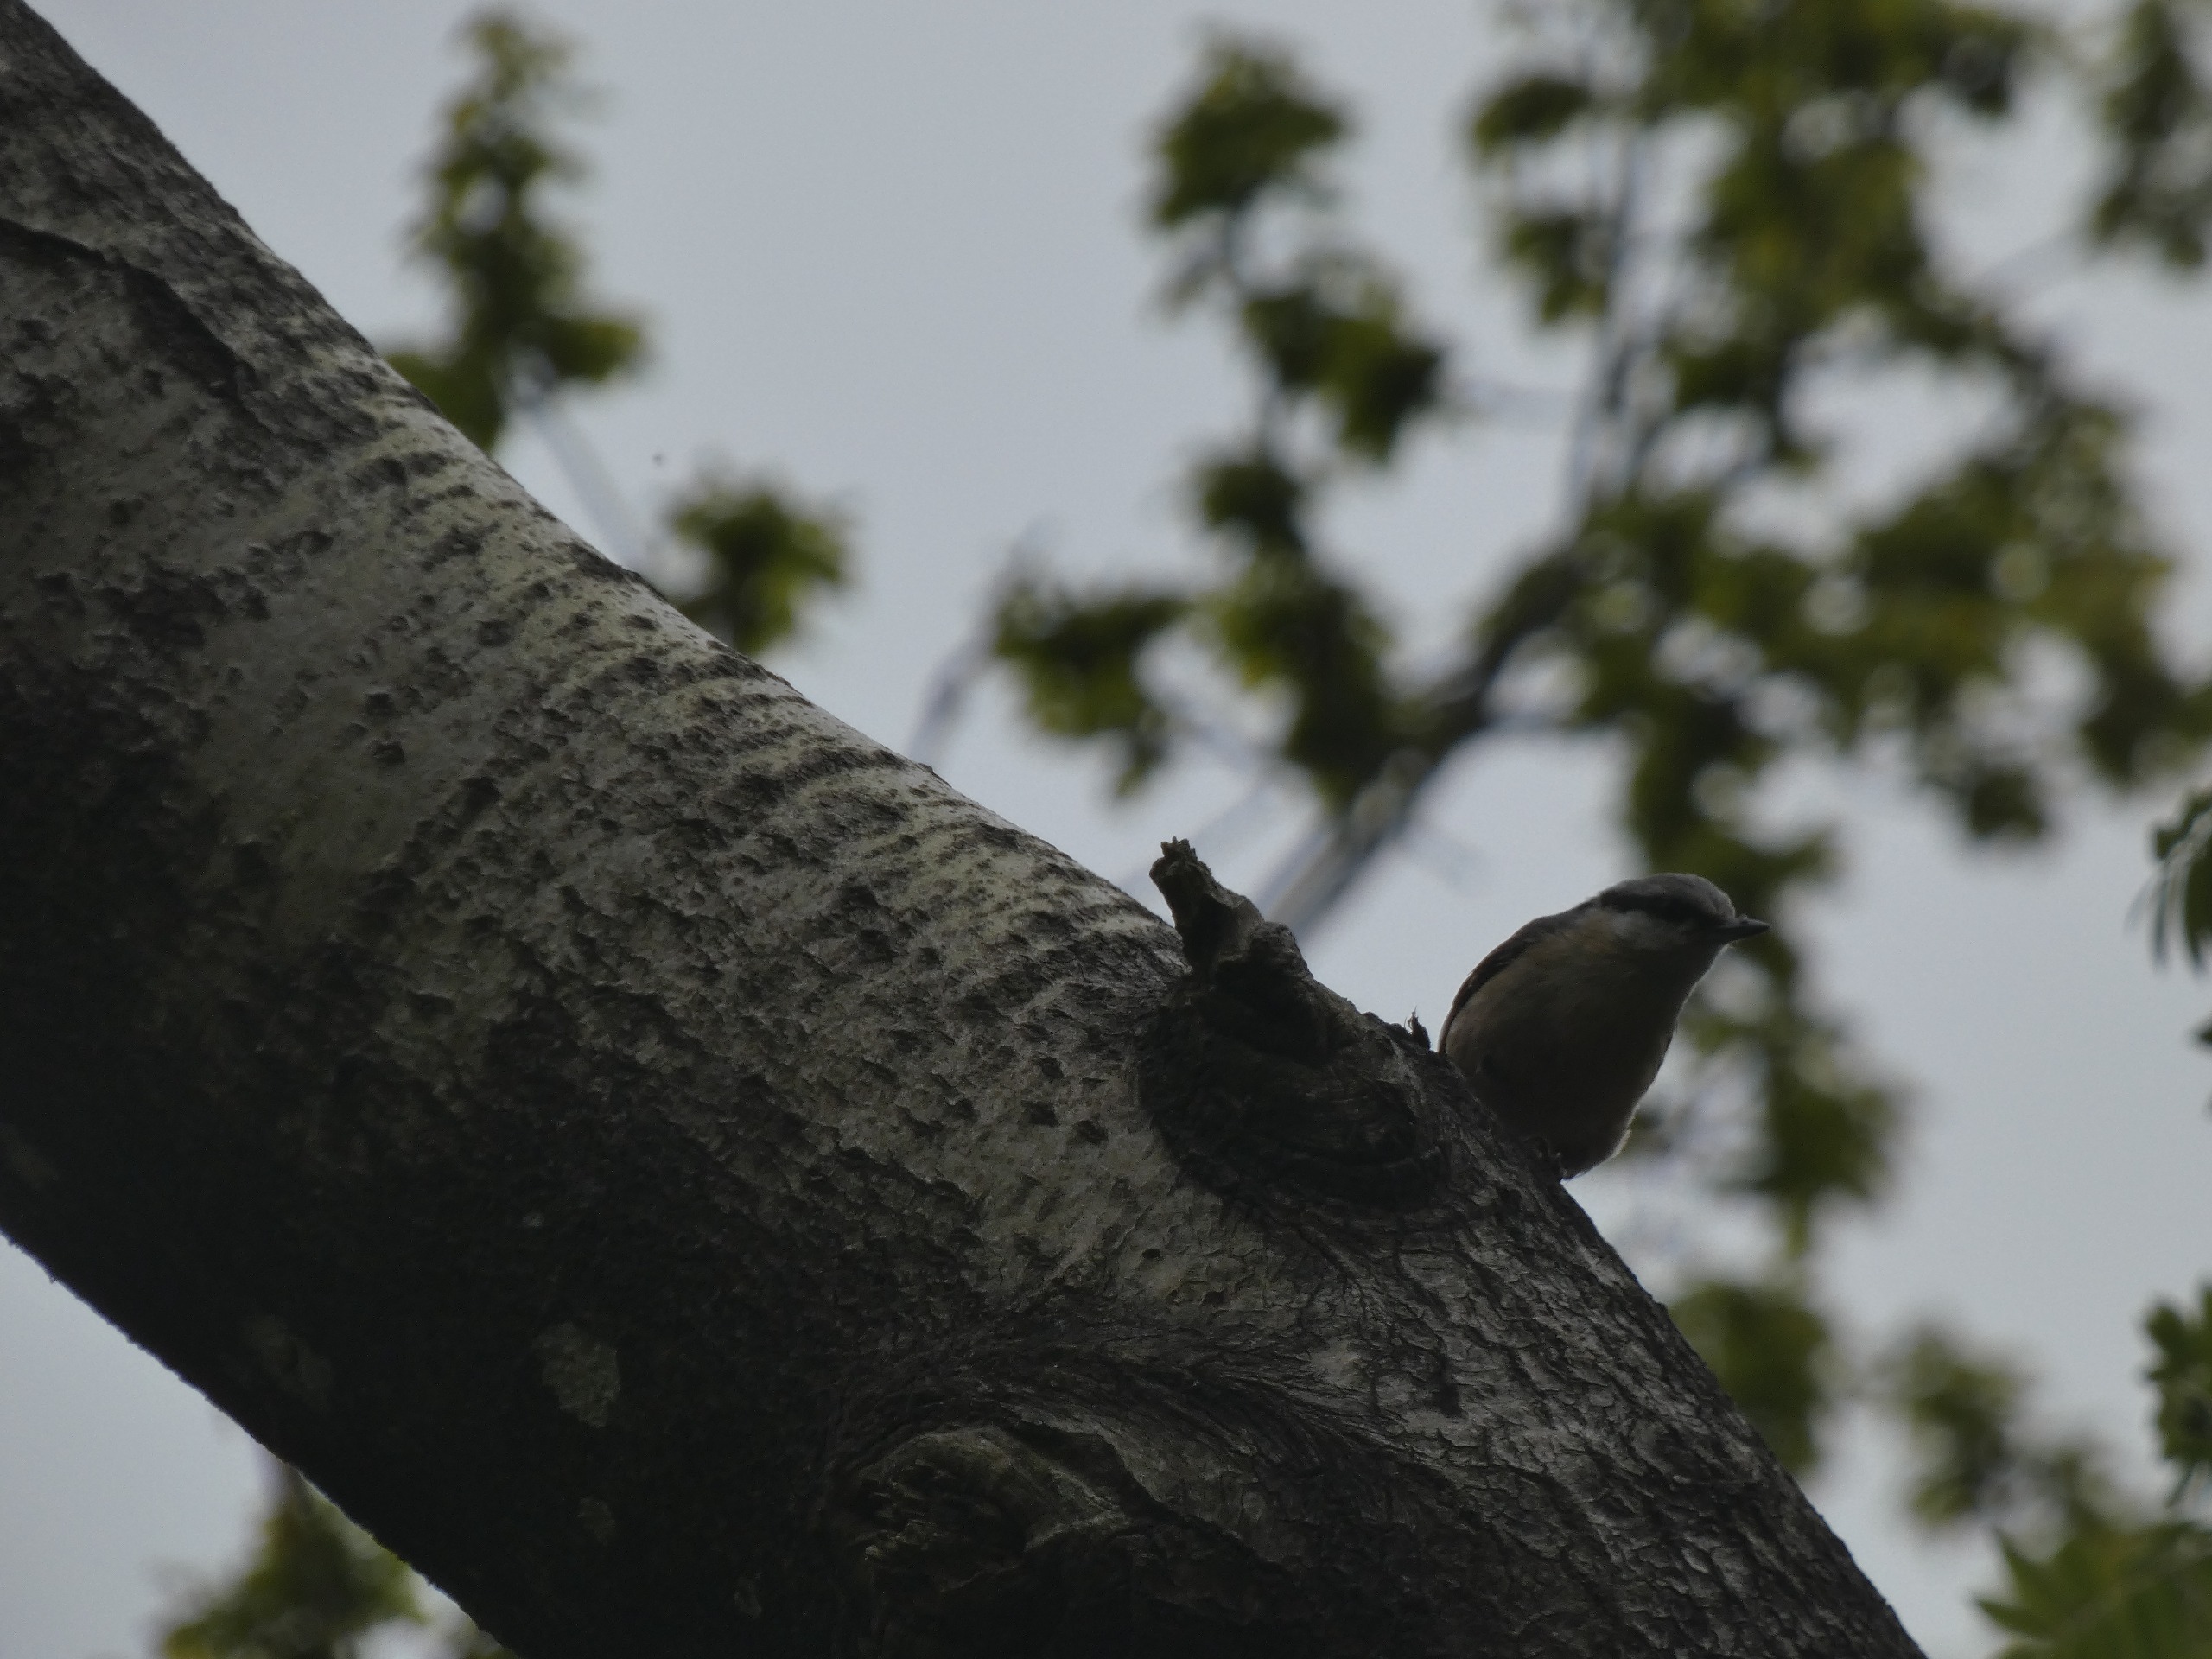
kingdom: Animalia
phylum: Chordata
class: Aves
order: Passeriformes
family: Sittidae
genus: Sitta
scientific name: Sitta europaea
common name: Spætmejse
